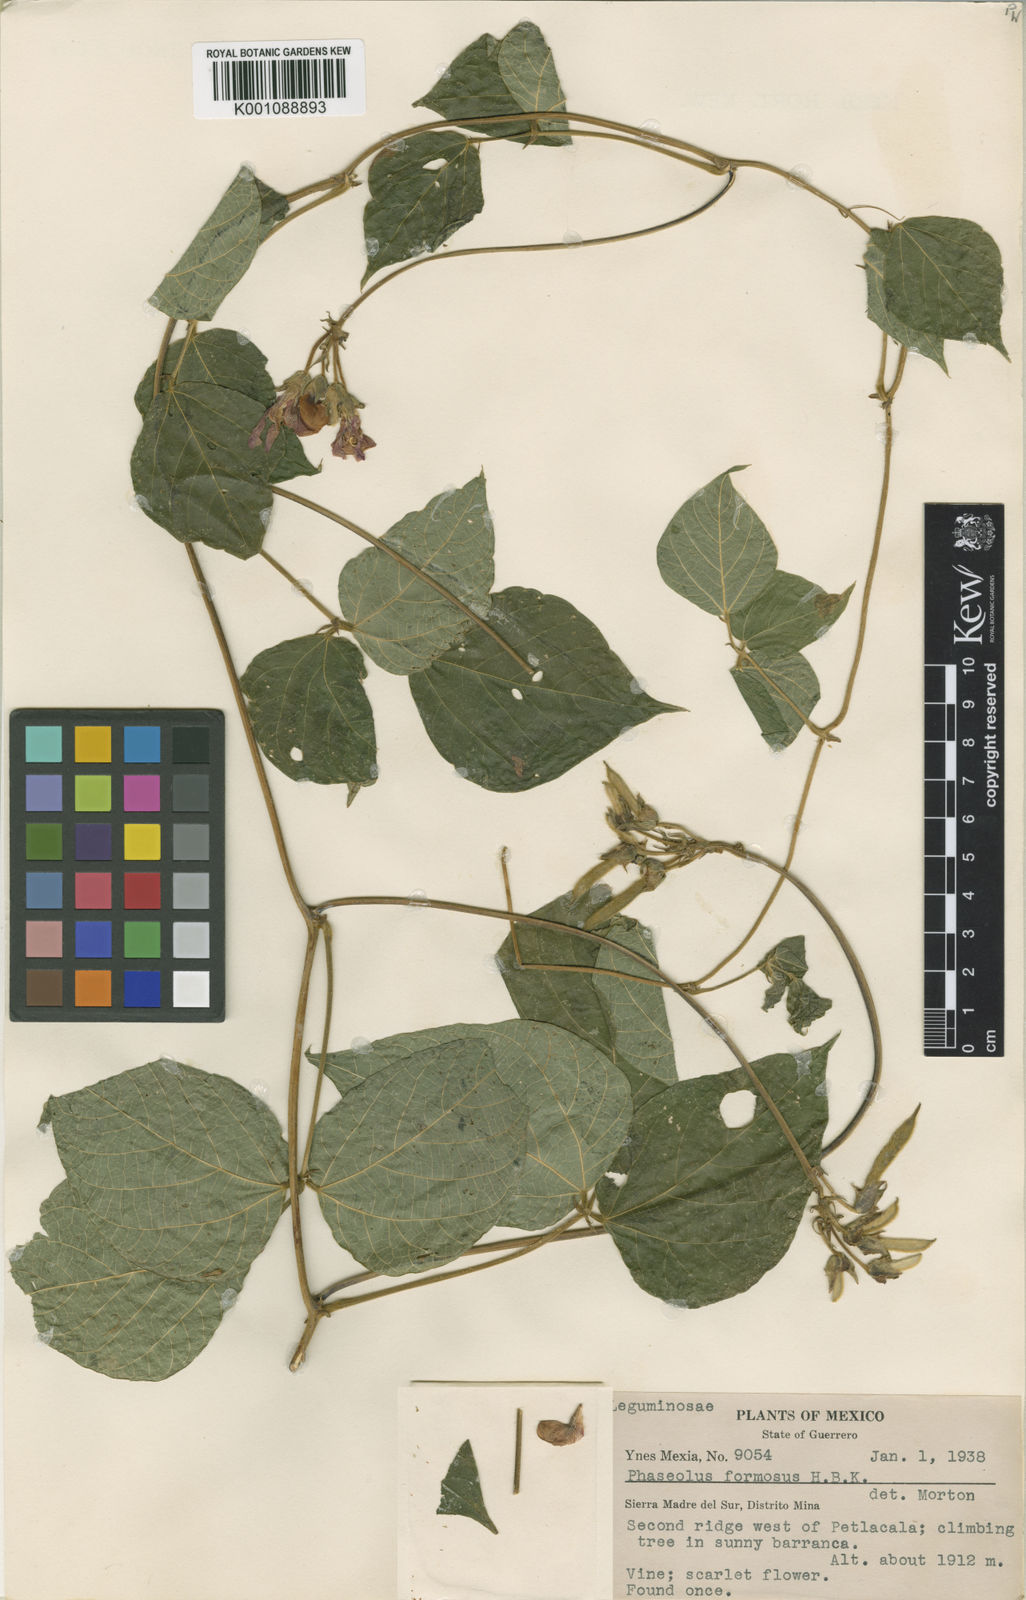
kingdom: Plantae
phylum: Tracheophyta
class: Magnoliopsida
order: Fabales
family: Fabaceae
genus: Phaseolus
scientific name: Phaseolus coccineus
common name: Runner bean
